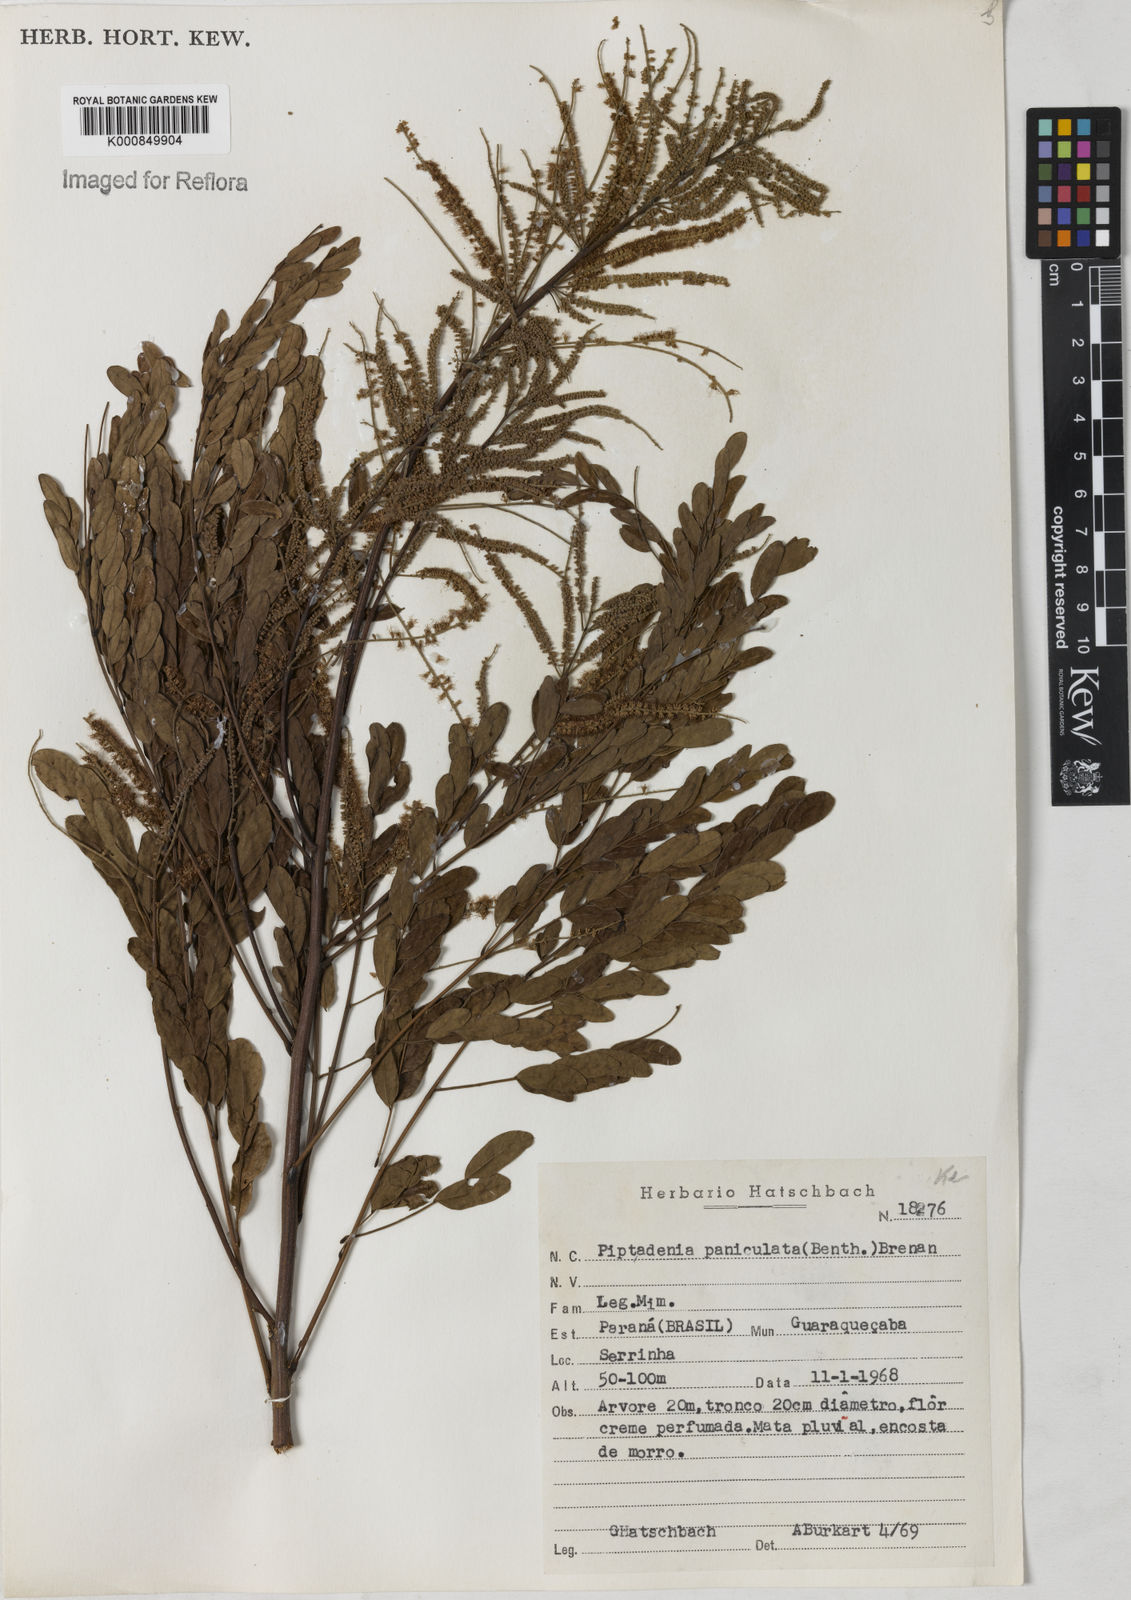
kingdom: Plantae
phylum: Tracheophyta
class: Magnoliopsida
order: Fabales
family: Fabaceae
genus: Piptadenia
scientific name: Piptadenia paniculata
